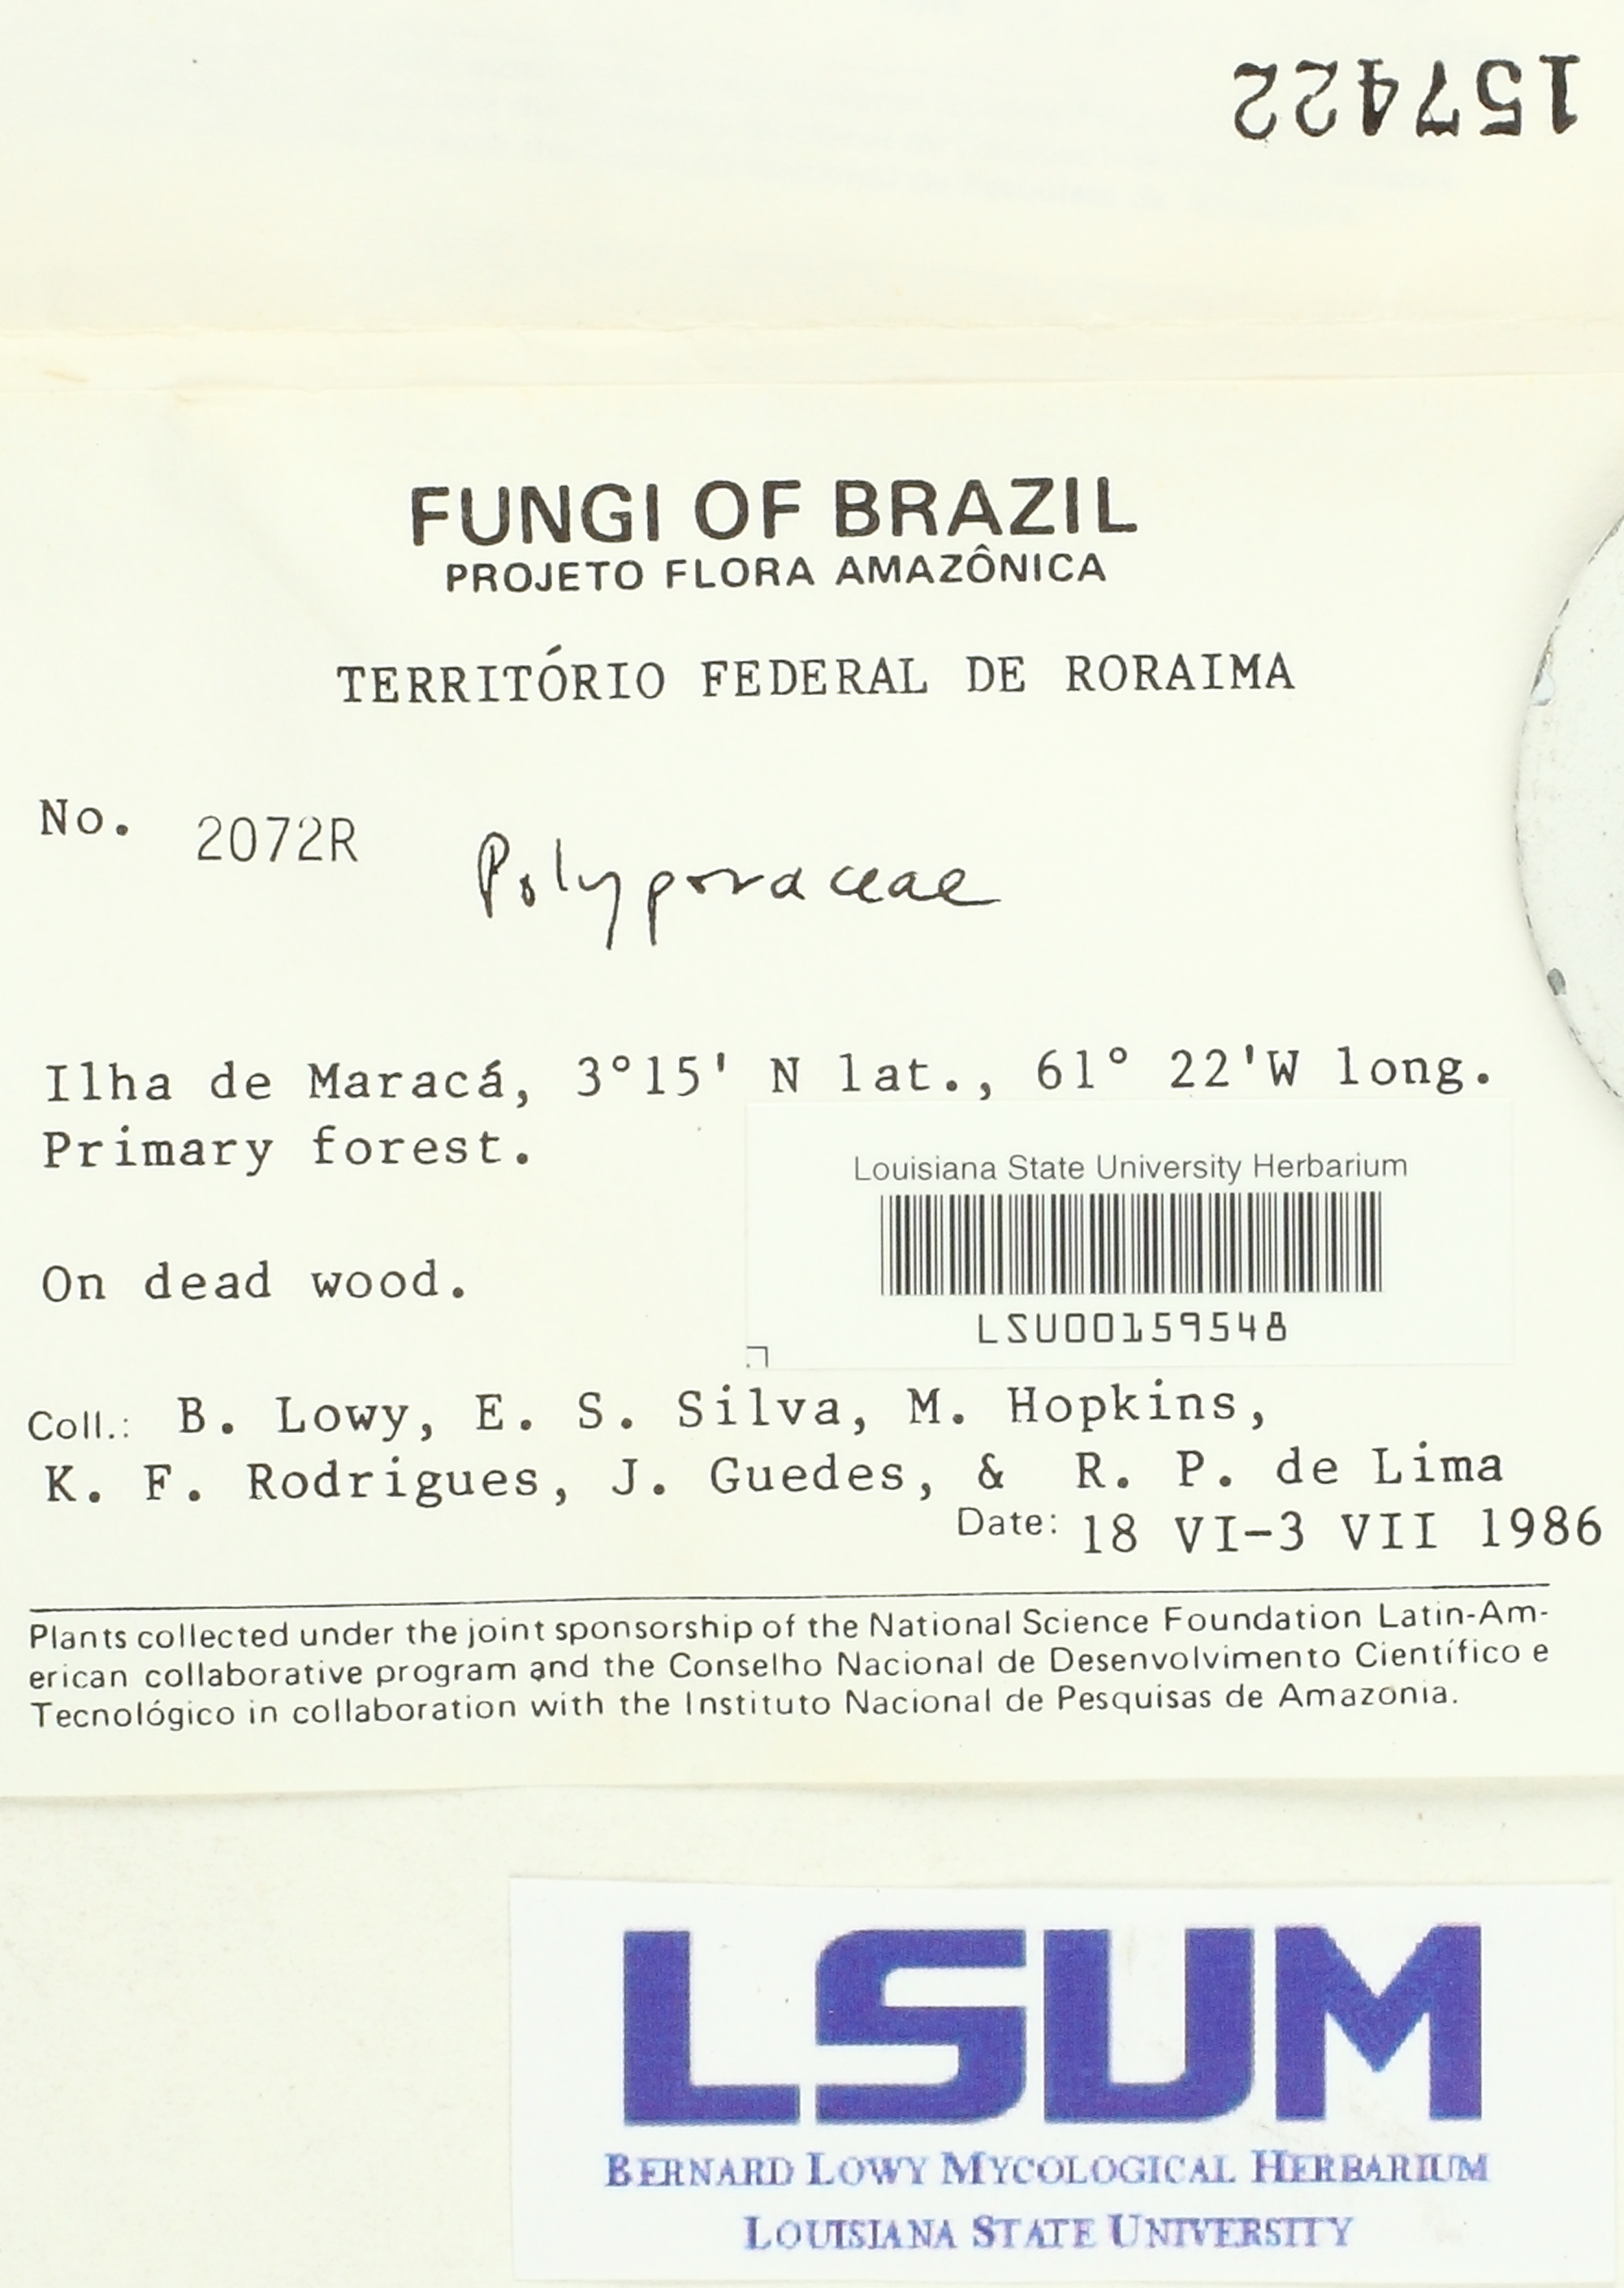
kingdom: Fungi
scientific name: Fungi
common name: Fungi
